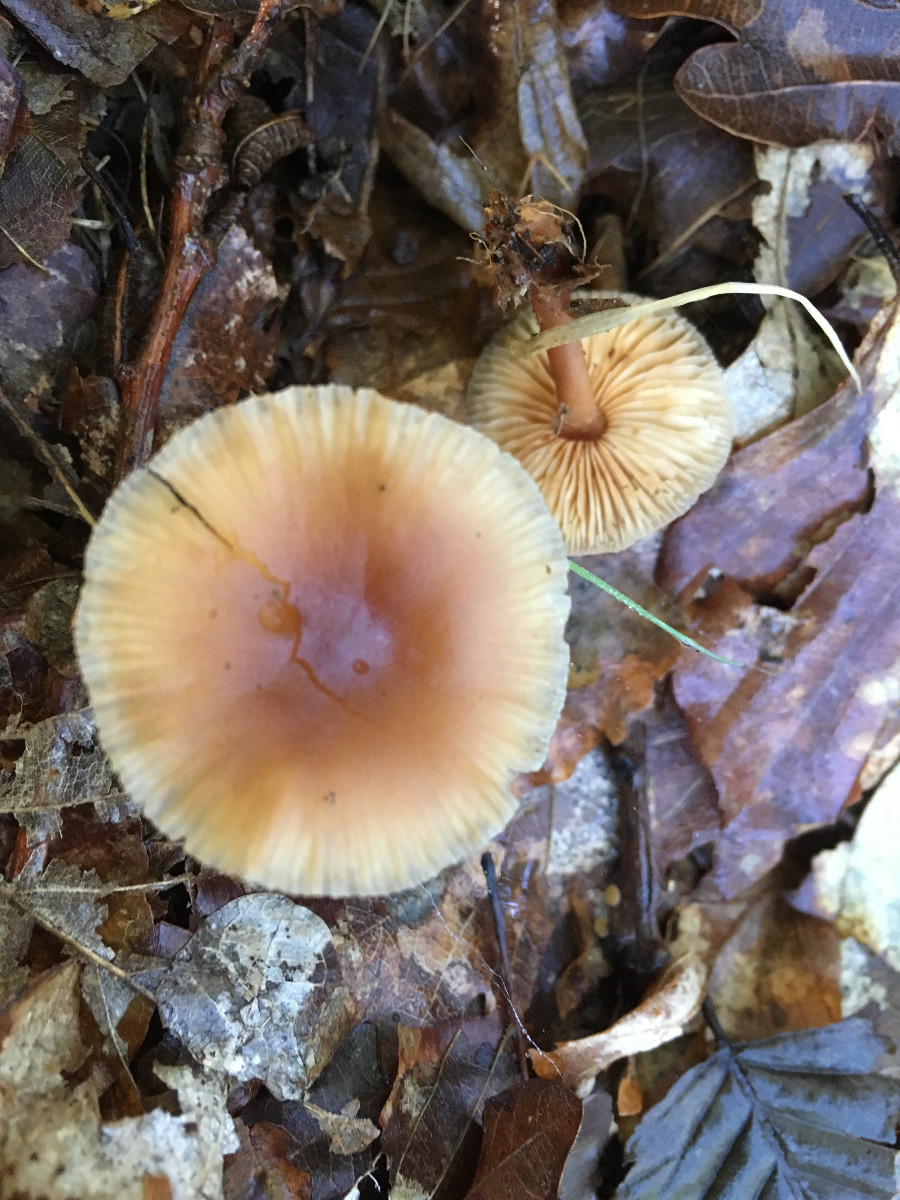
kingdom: Fungi
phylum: Basidiomycota
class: Agaricomycetes
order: Agaricales
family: Omphalotaceae
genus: Gymnopus
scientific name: Gymnopus
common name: fladhat
